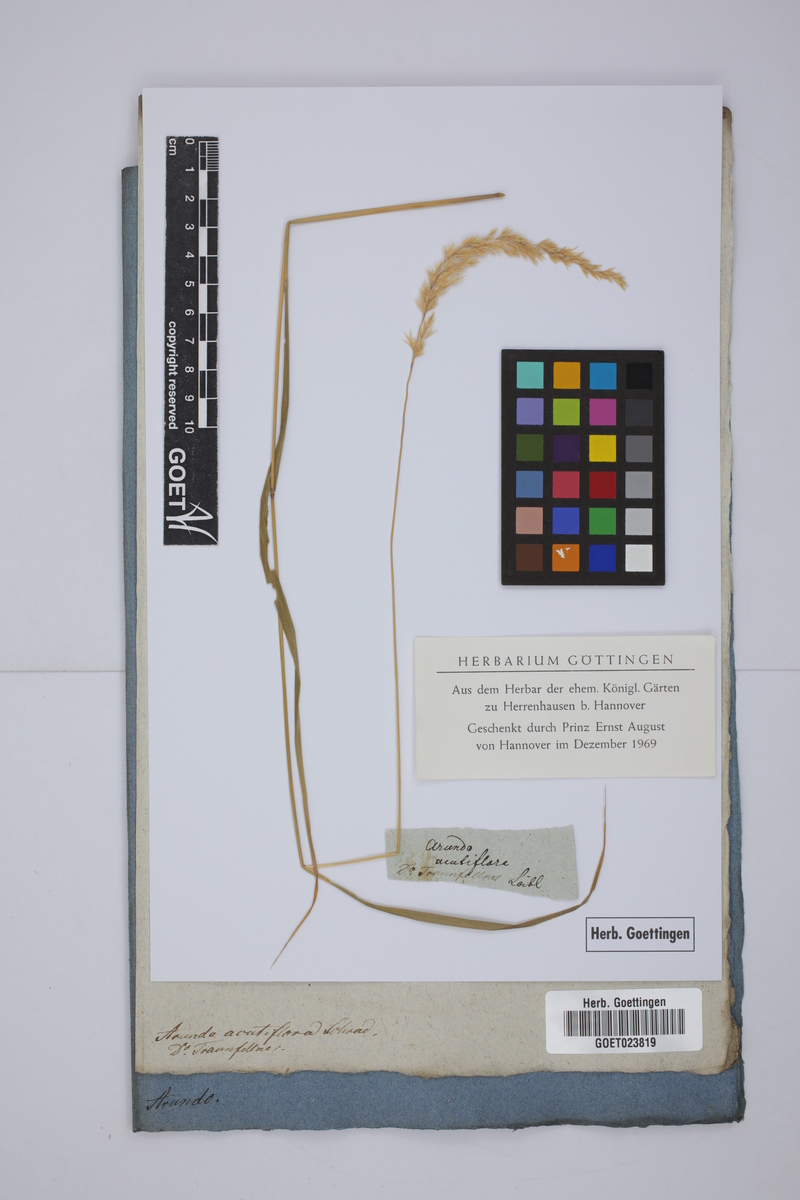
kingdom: Plantae
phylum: Tracheophyta
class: Liliopsida
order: Poales
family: Poaceae
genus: Calamagrostis
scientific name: Calamagrostis acutiflora
